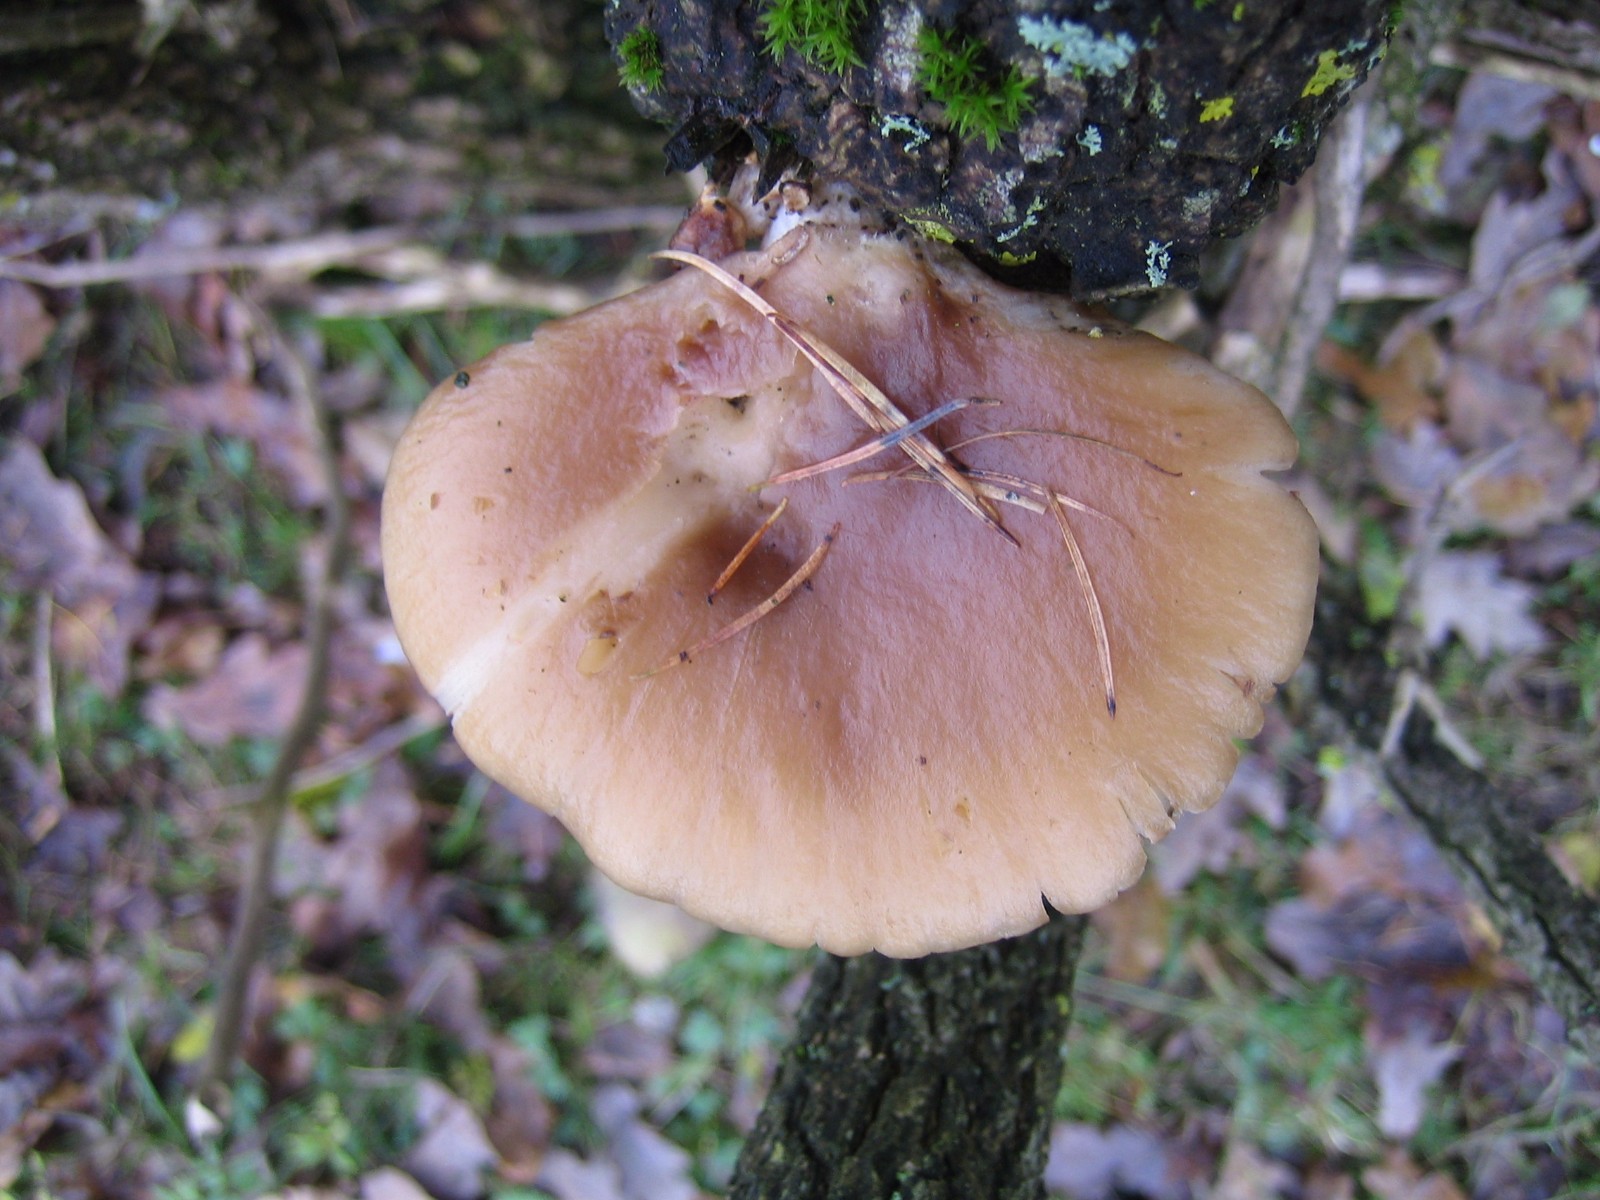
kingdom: Fungi
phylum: Basidiomycota
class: Agaricomycetes
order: Agaricales
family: Pleurotaceae
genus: Pleurotus
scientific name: Pleurotus ostreatus
